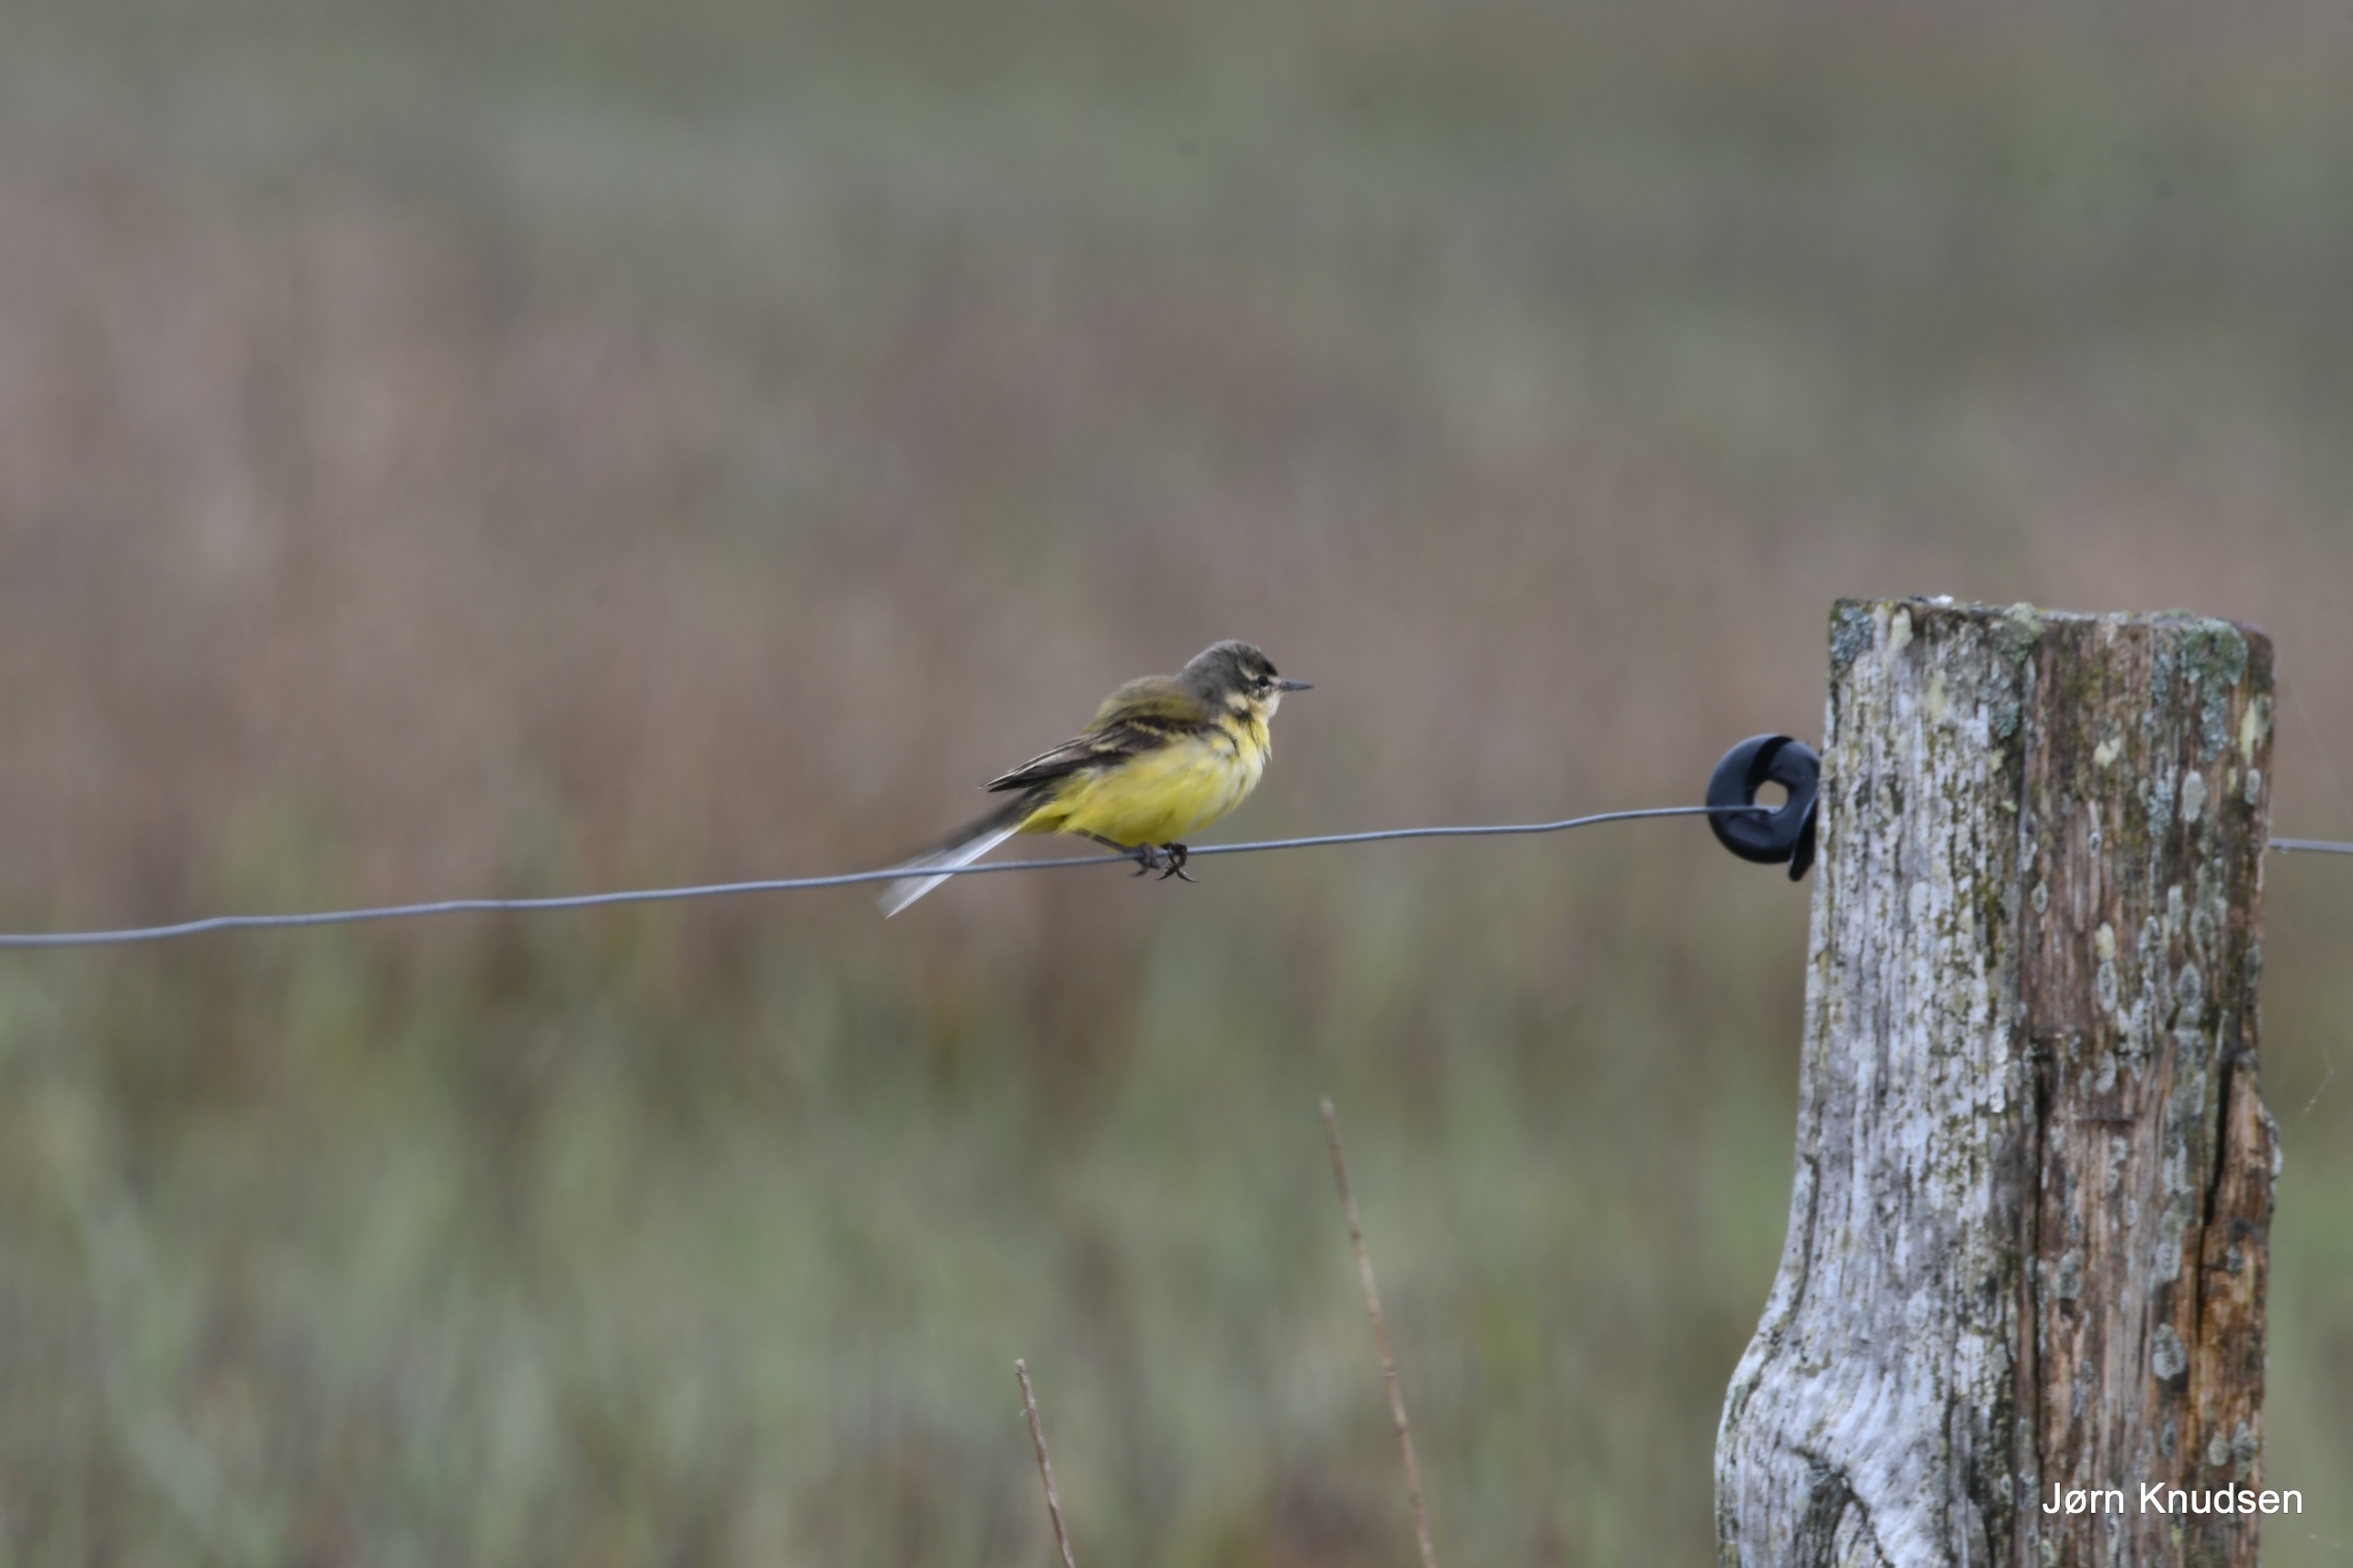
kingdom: Animalia
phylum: Chordata
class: Aves
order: Passeriformes
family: Motacillidae
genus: Motacilla
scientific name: Motacilla flava
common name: Gul vipstjert
